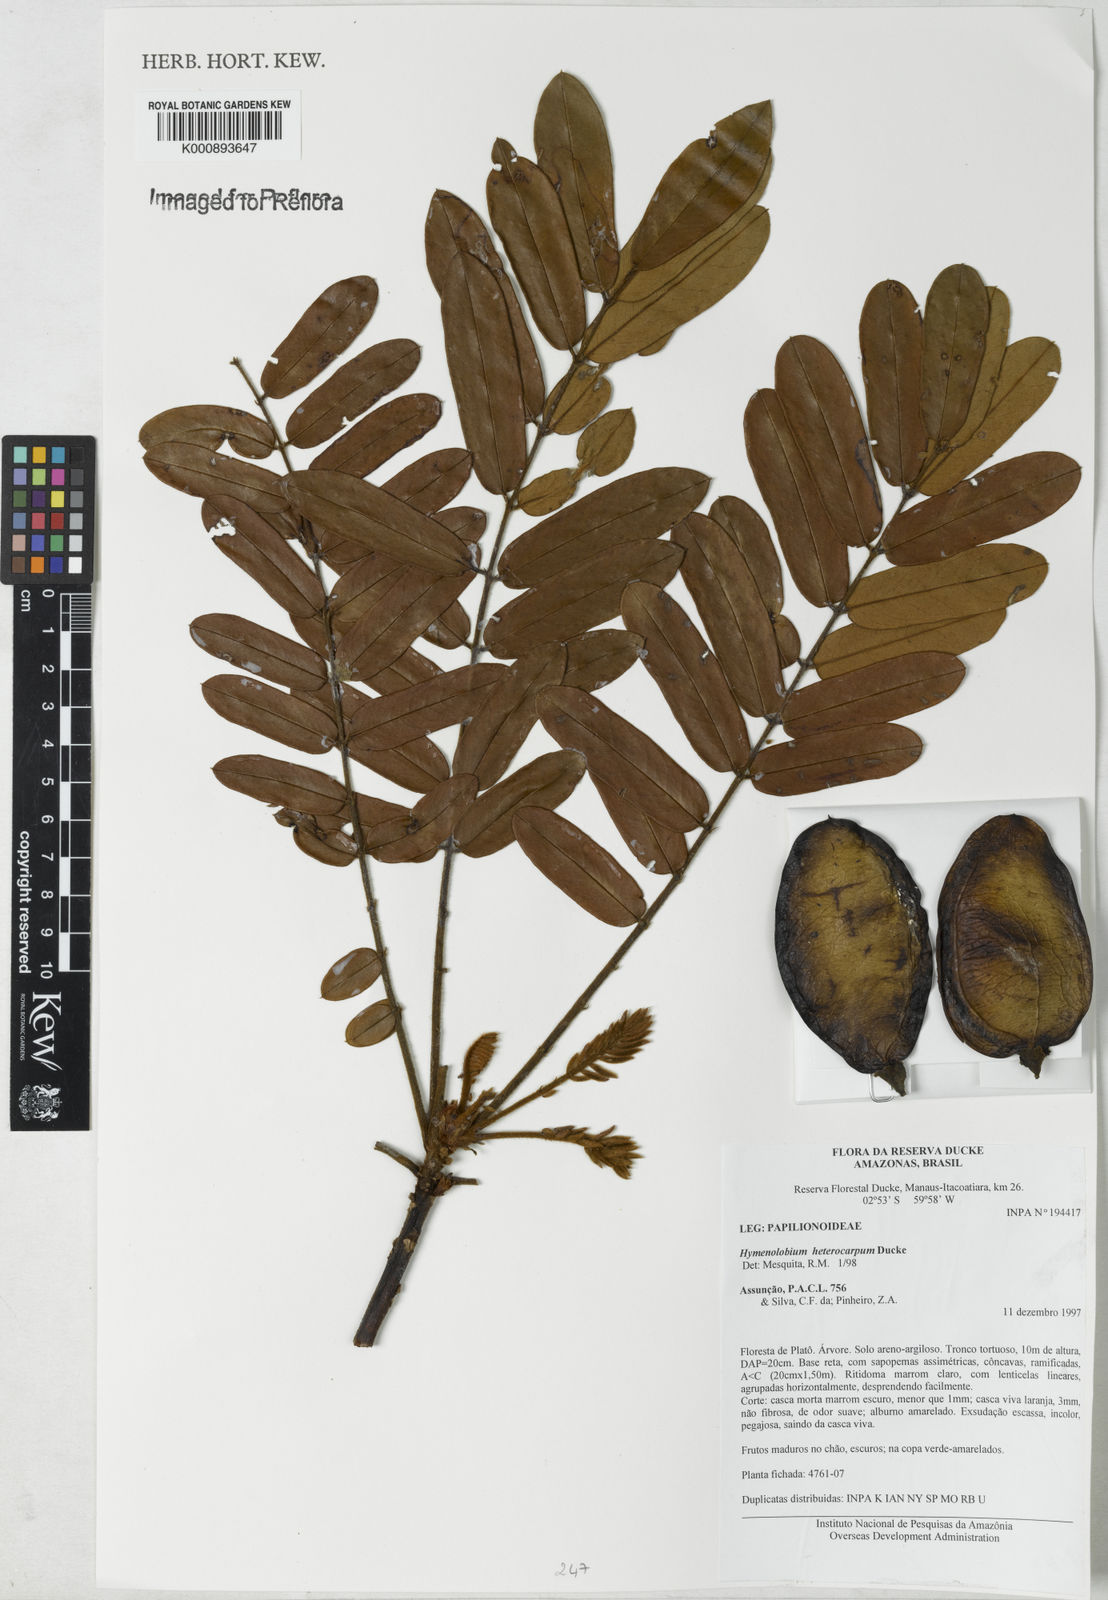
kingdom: Plantae
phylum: Tracheophyta
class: Magnoliopsida
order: Fabales
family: Fabaceae
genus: Hymenolobium
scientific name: Hymenolobium heterocarpum
